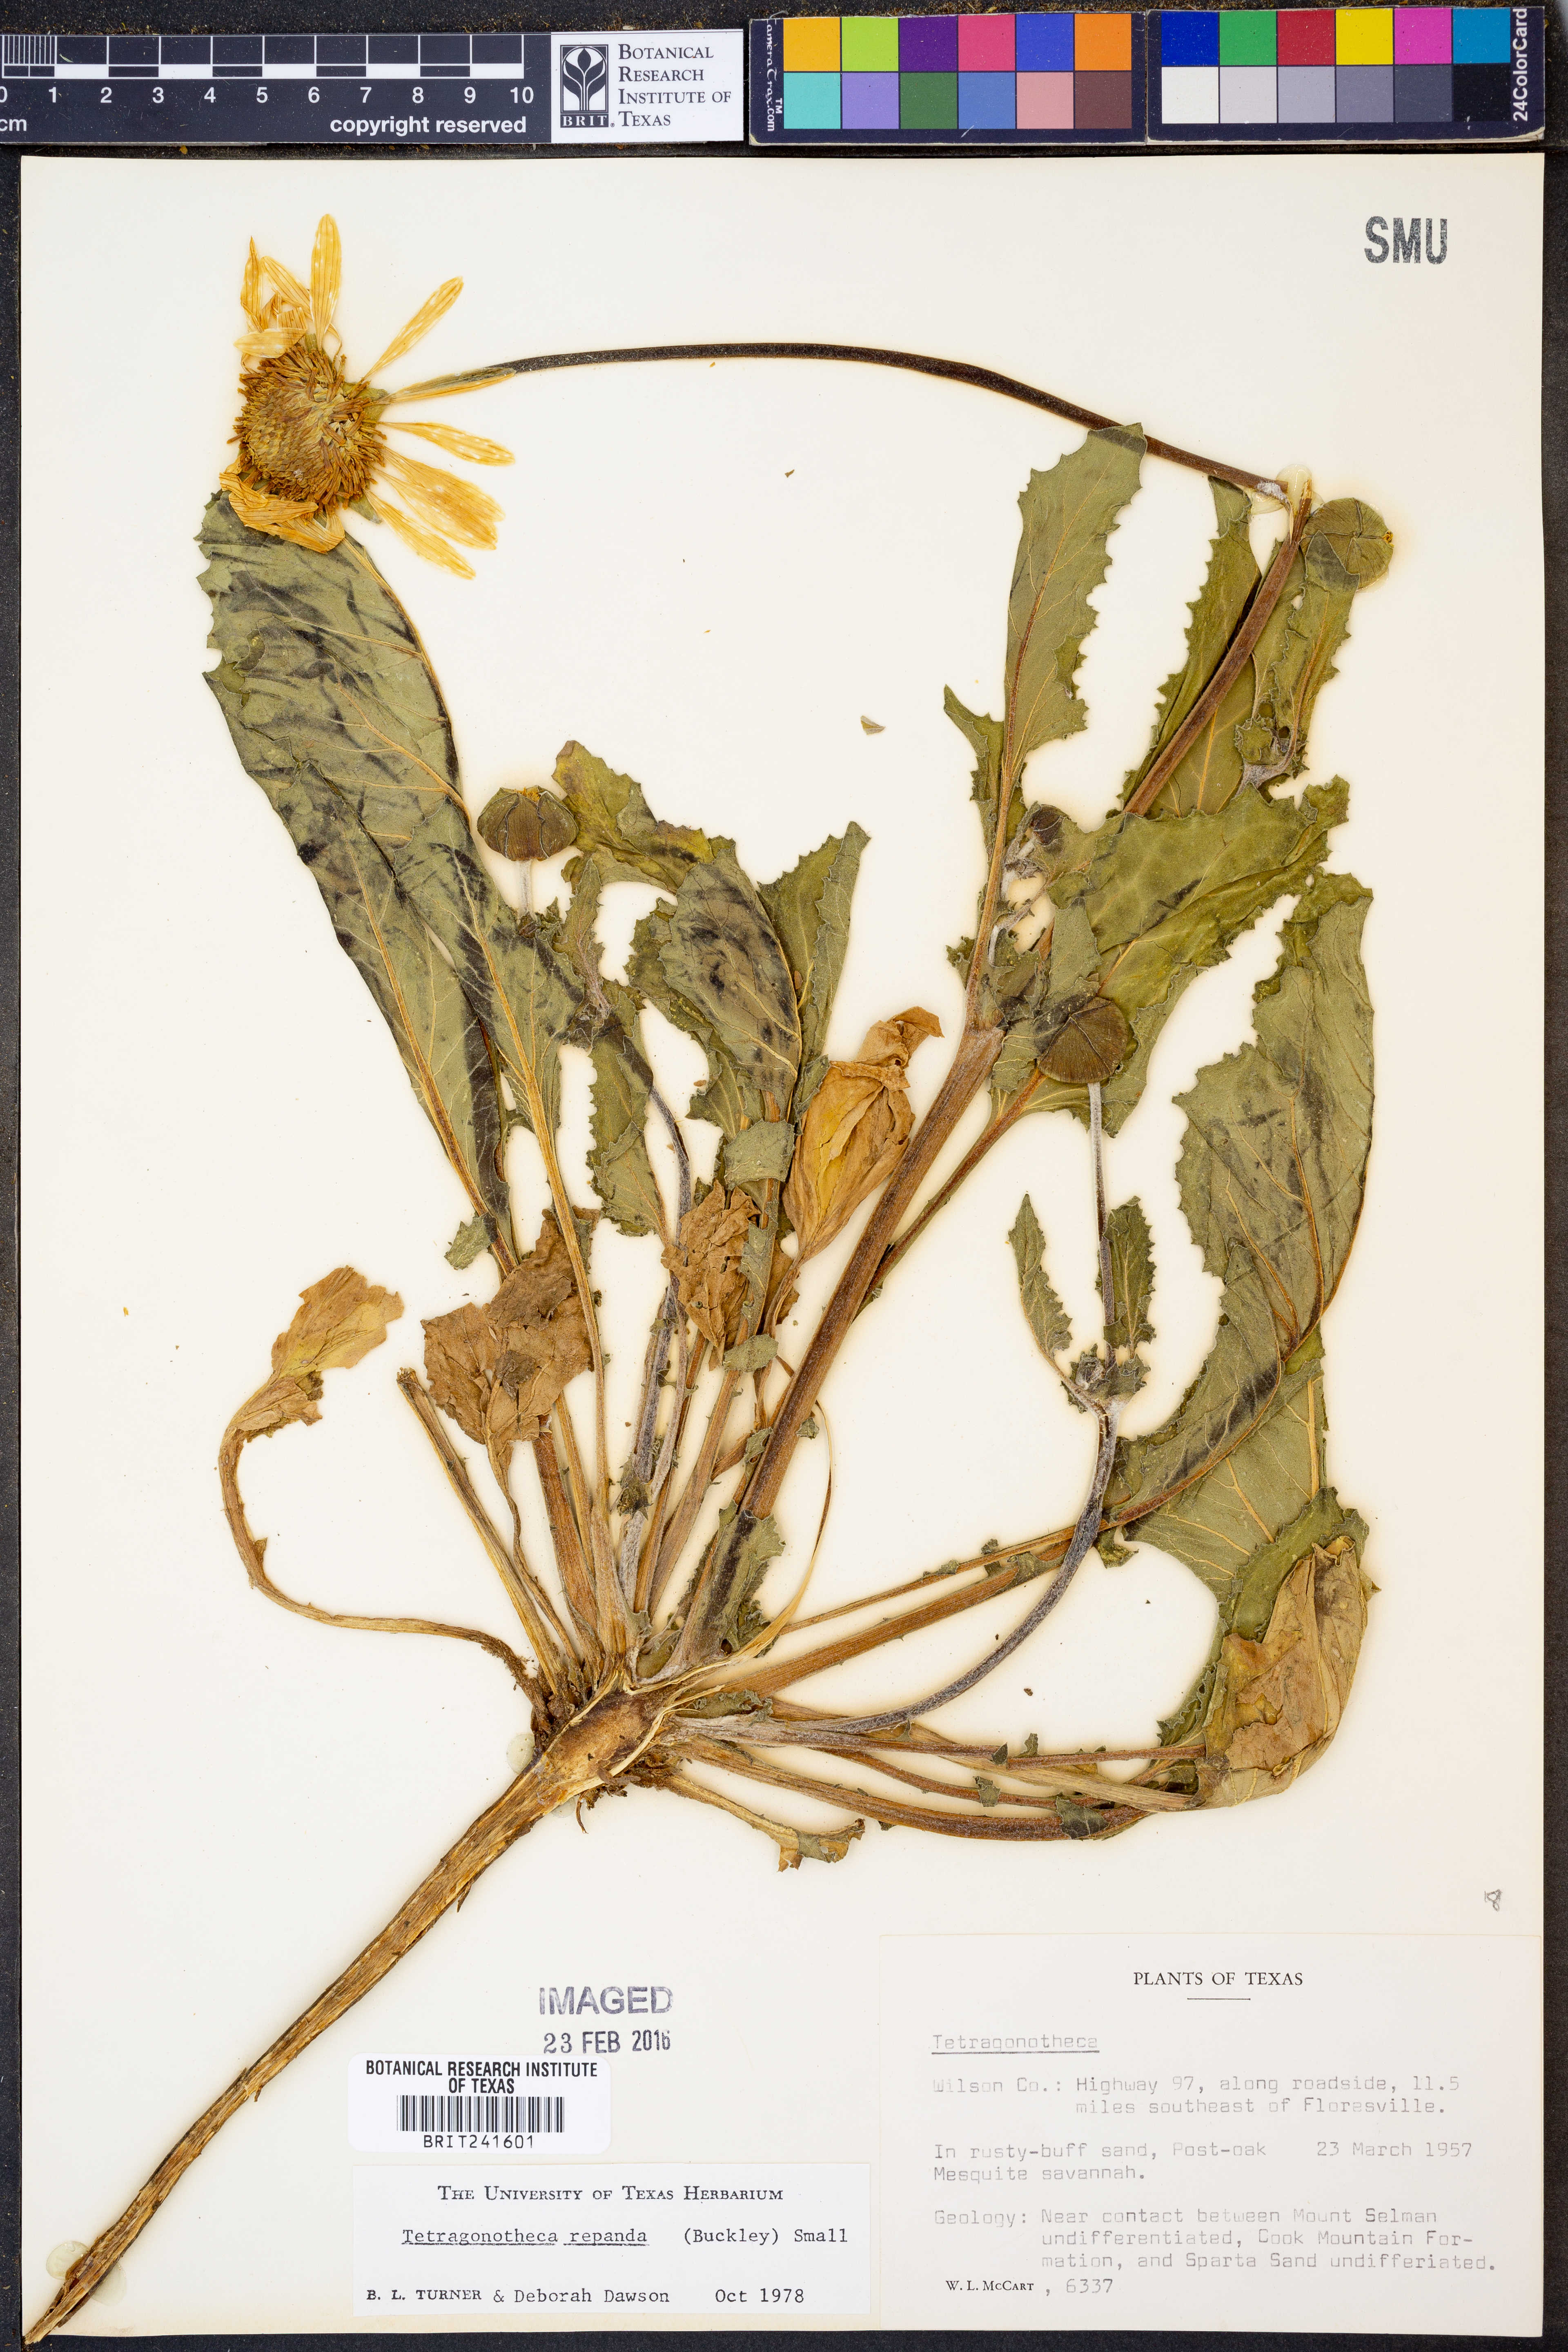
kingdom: Plantae
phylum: Tracheophyta
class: Magnoliopsida
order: Asterales
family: Asteraceae
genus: Tetragonotheca
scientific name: Tetragonotheca repanda
